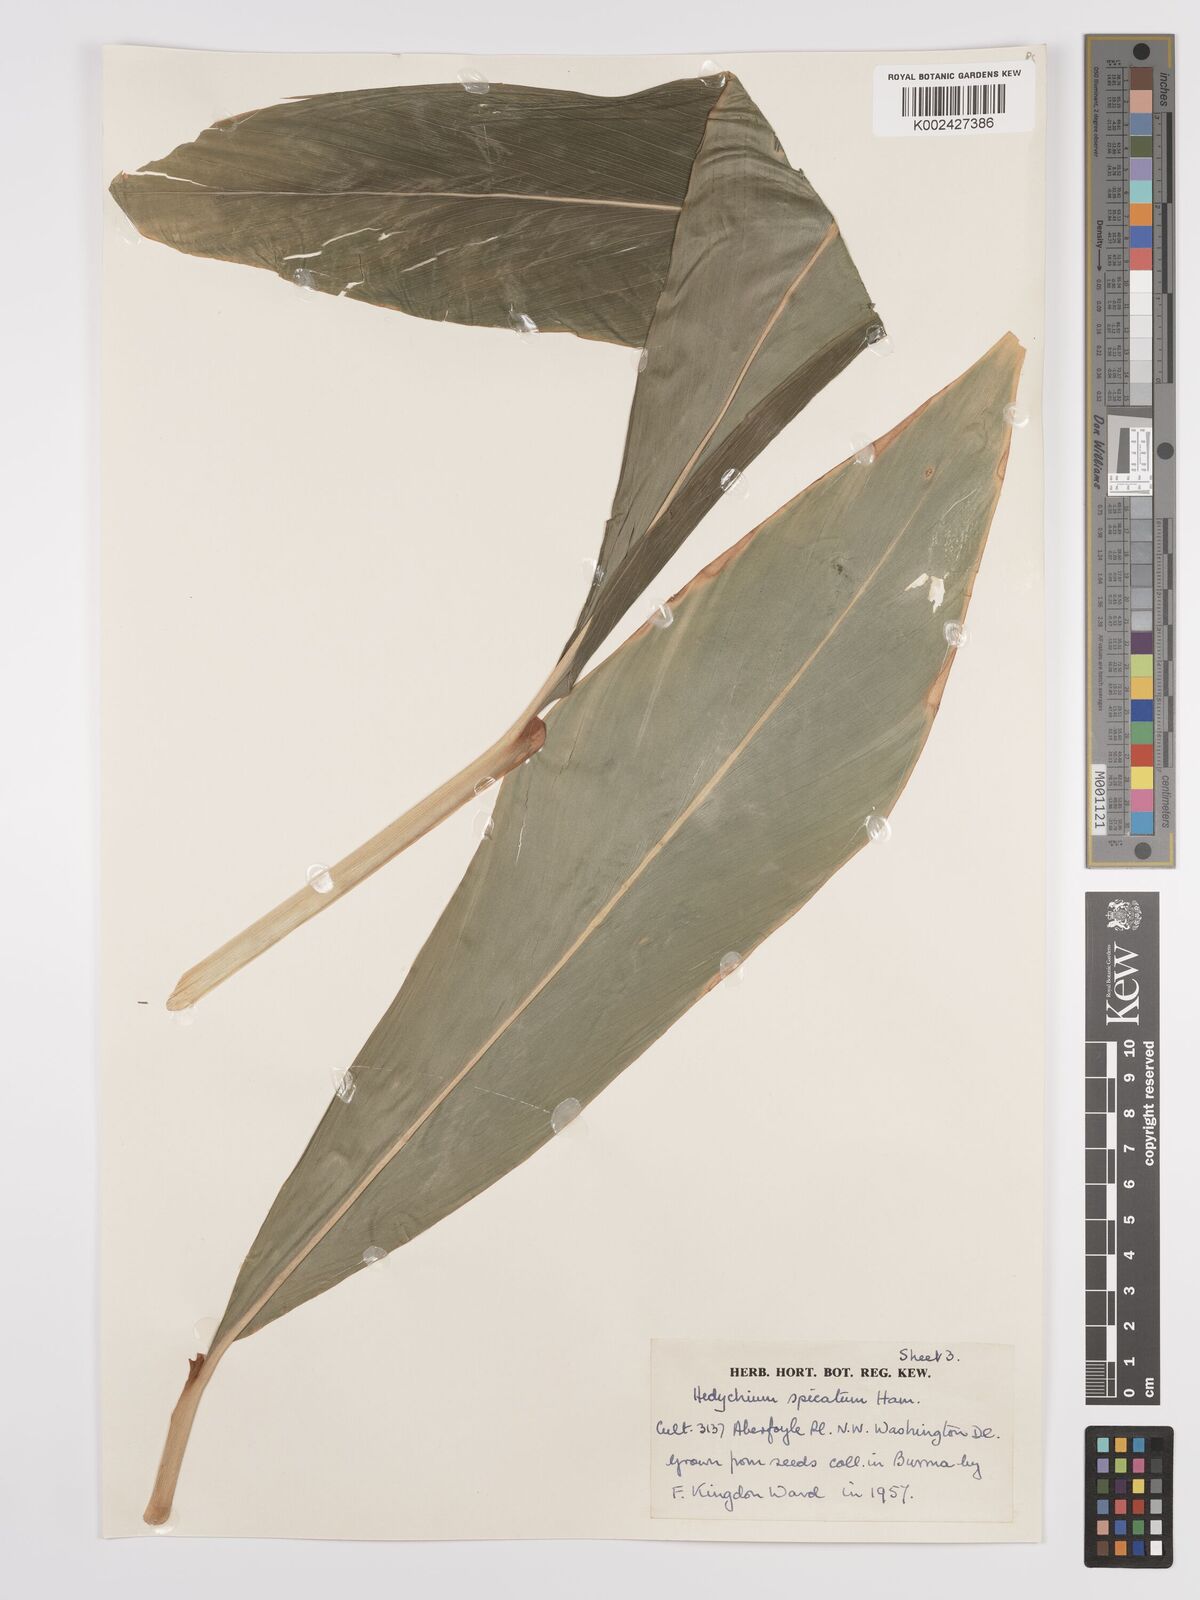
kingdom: Plantae
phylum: Tracheophyta
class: Liliopsida
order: Zingiberales
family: Zingiberaceae
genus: Hedychium
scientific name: Hedychium spicatum
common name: Spiked ginger-lily
